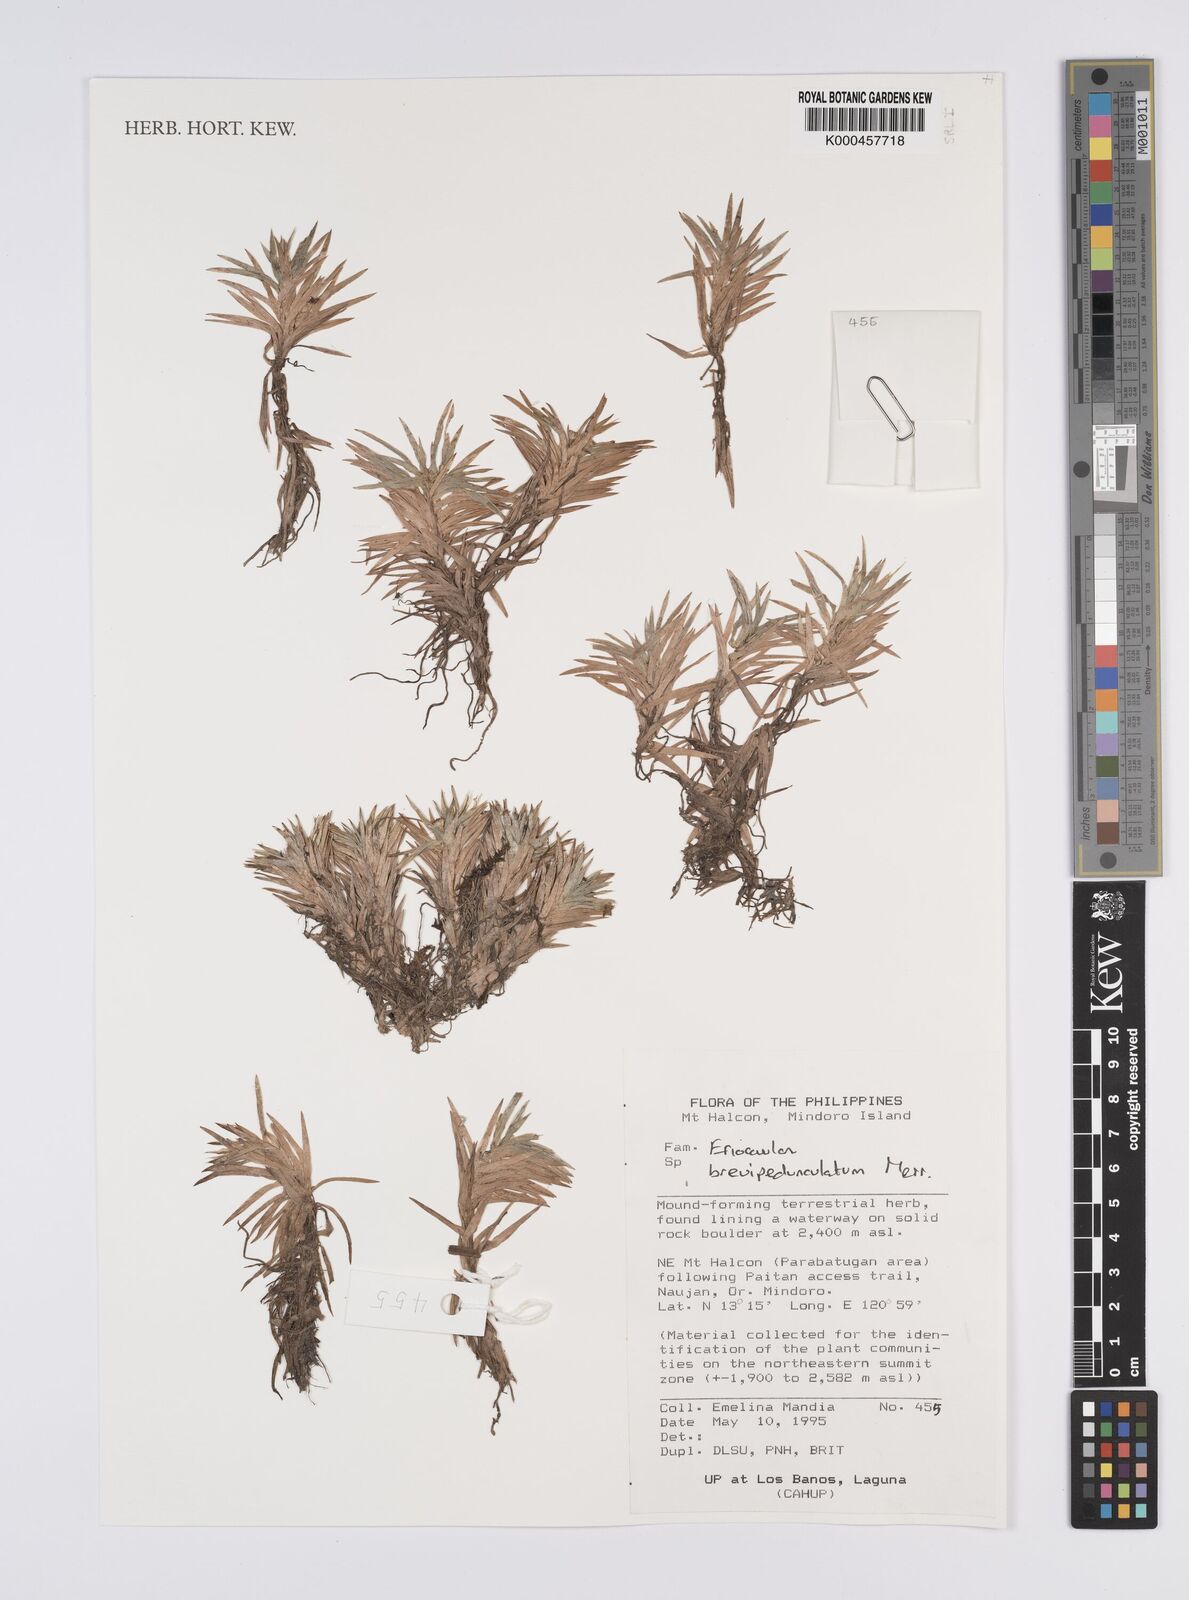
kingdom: Plantae
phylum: Tracheophyta
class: Liliopsida
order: Poales
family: Eriocaulaceae
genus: Eriocaulon
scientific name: Eriocaulon brevipedunculatum
